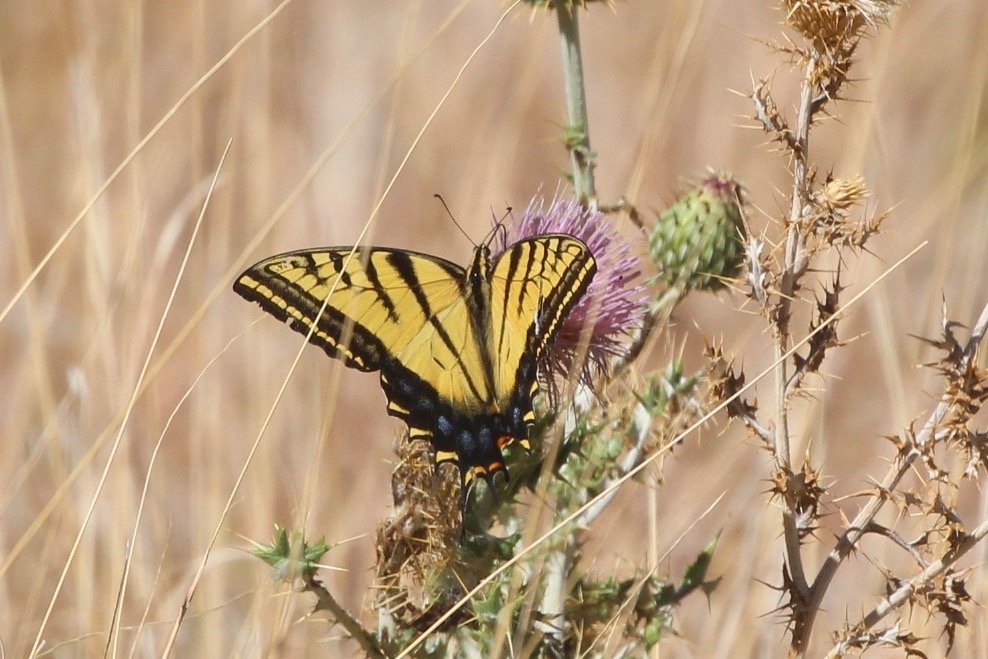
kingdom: Animalia
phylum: Arthropoda
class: Insecta
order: Lepidoptera
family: Papilionidae
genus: Papilio
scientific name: Papilio multicaudata
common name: Two-tailed Swallowtail
